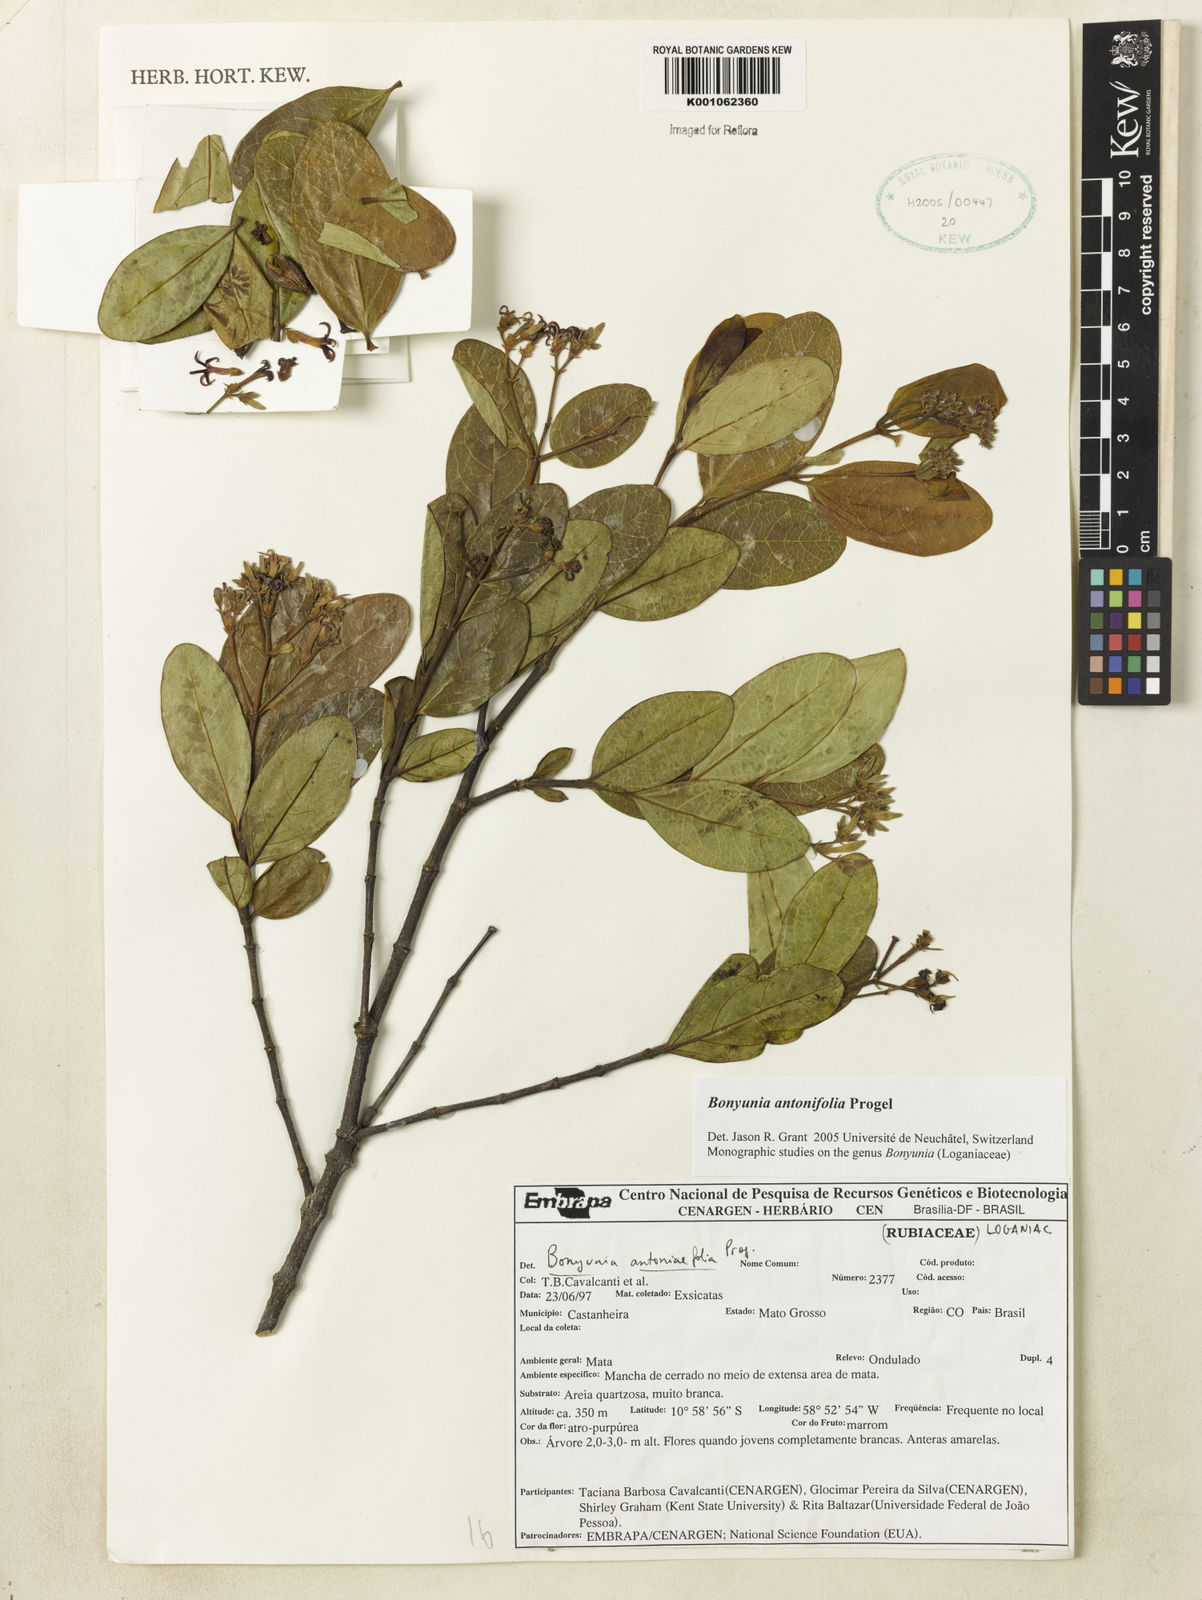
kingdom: Plantae
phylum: Tracheophyta
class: Magnoliopsida
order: Gentianales
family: Loganiaceae
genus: Bonyunia
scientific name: Bonyunia antoniifolia
